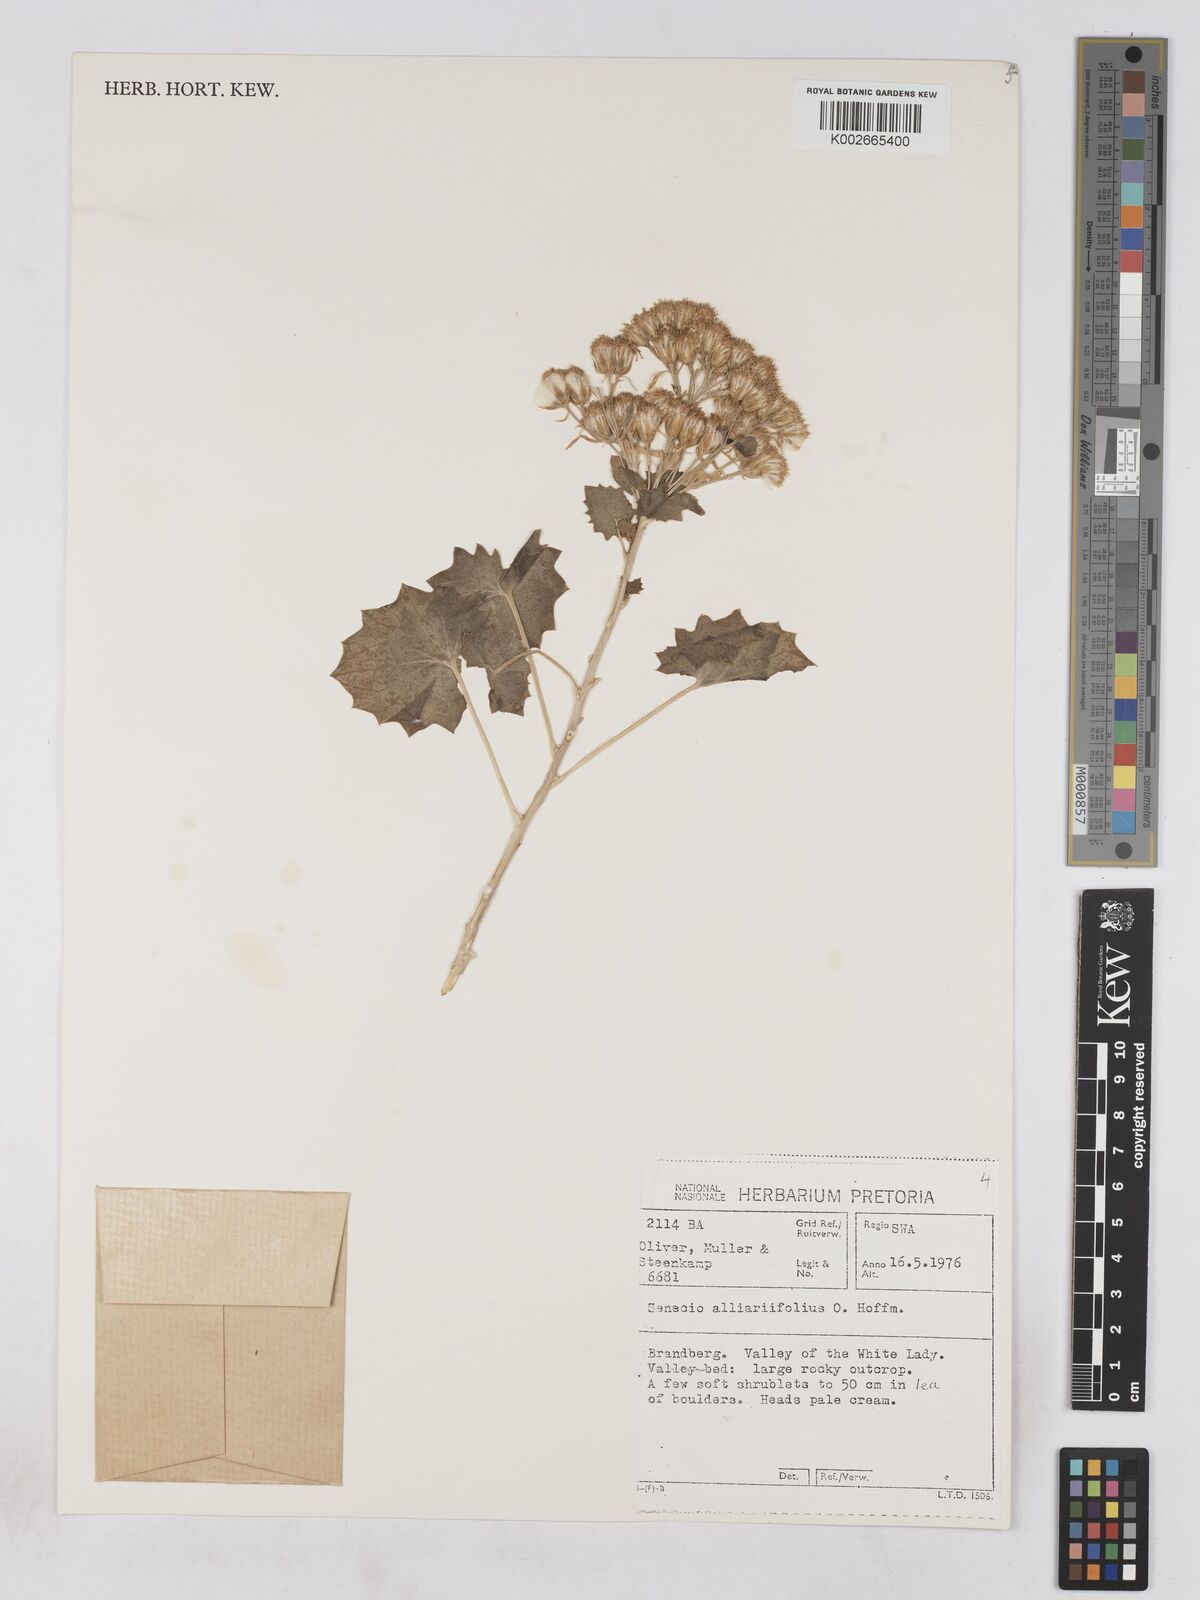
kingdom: Plantae
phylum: Tracheophyta
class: Magnoliopsida
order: Asterales
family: Asteraceae
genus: Dauresia
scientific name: Dauresia alliariifolia
